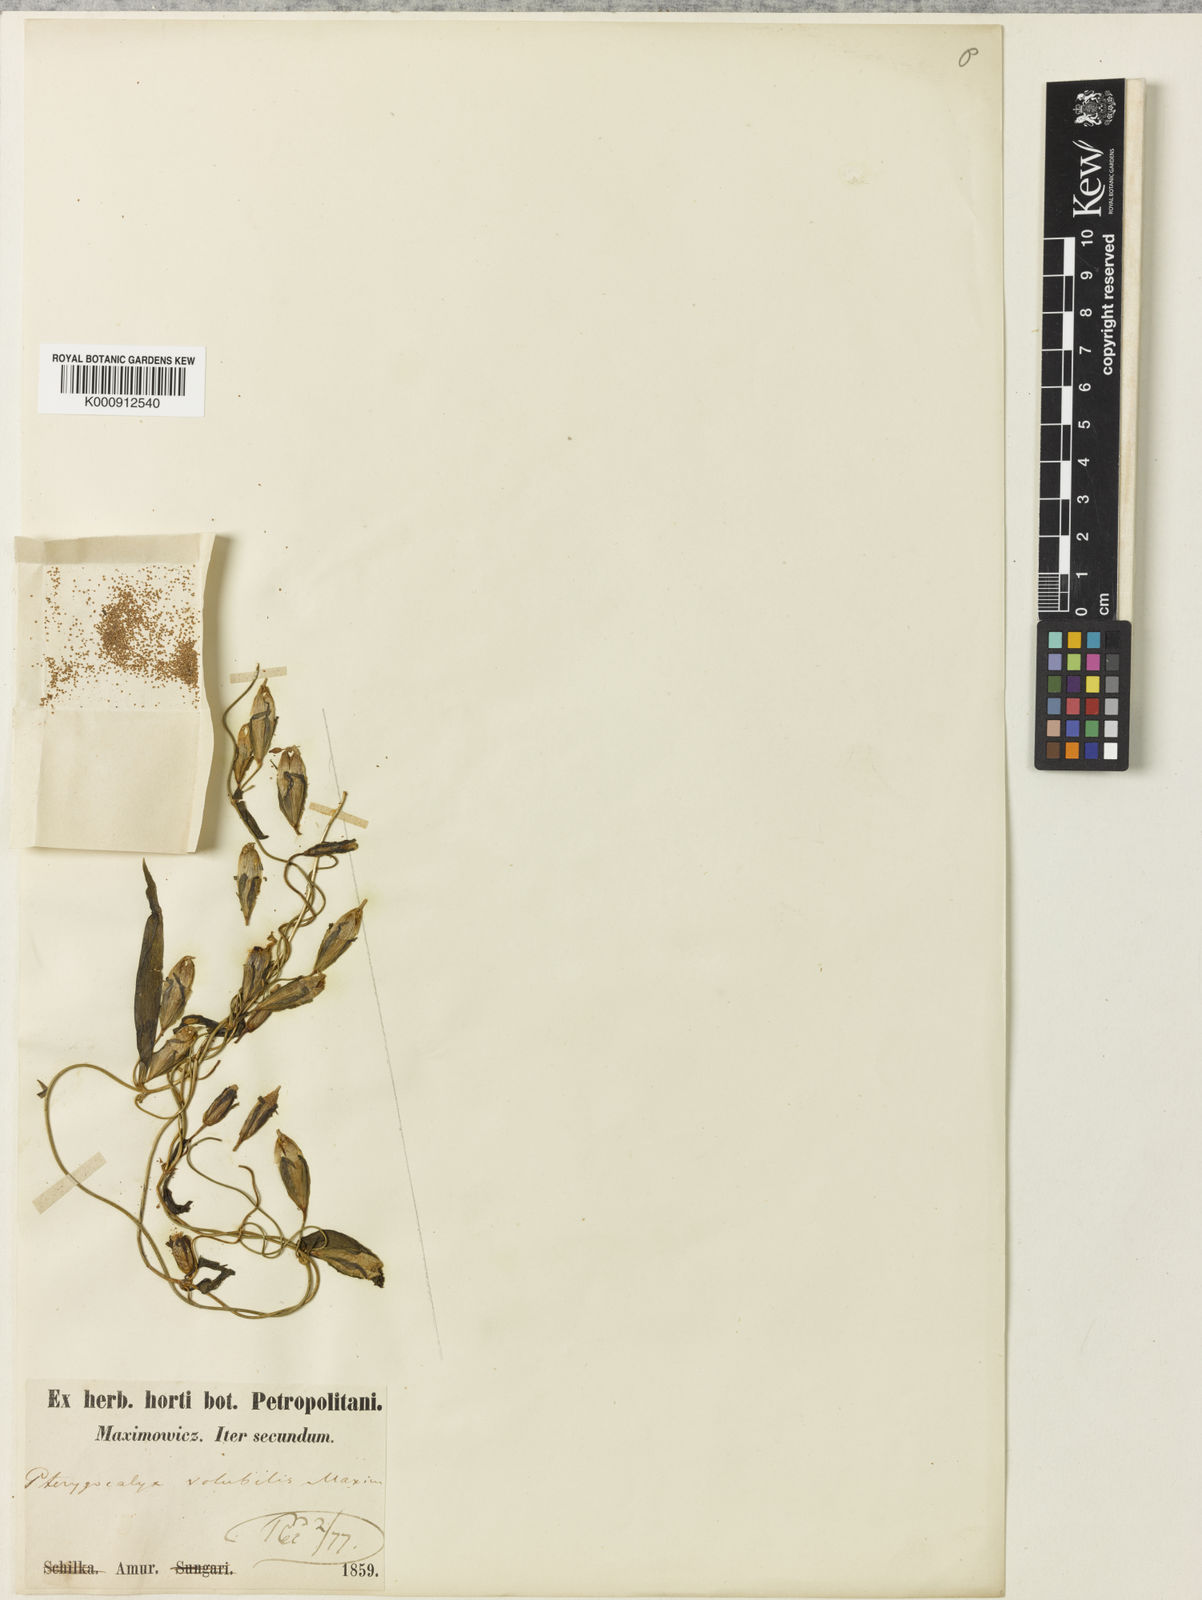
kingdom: Plantae
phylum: Tracheophyta
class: Magnoliopsida
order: Gentianales
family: Gentianaceae
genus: Pterygocalyx
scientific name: Pterygocalyx volubilis
